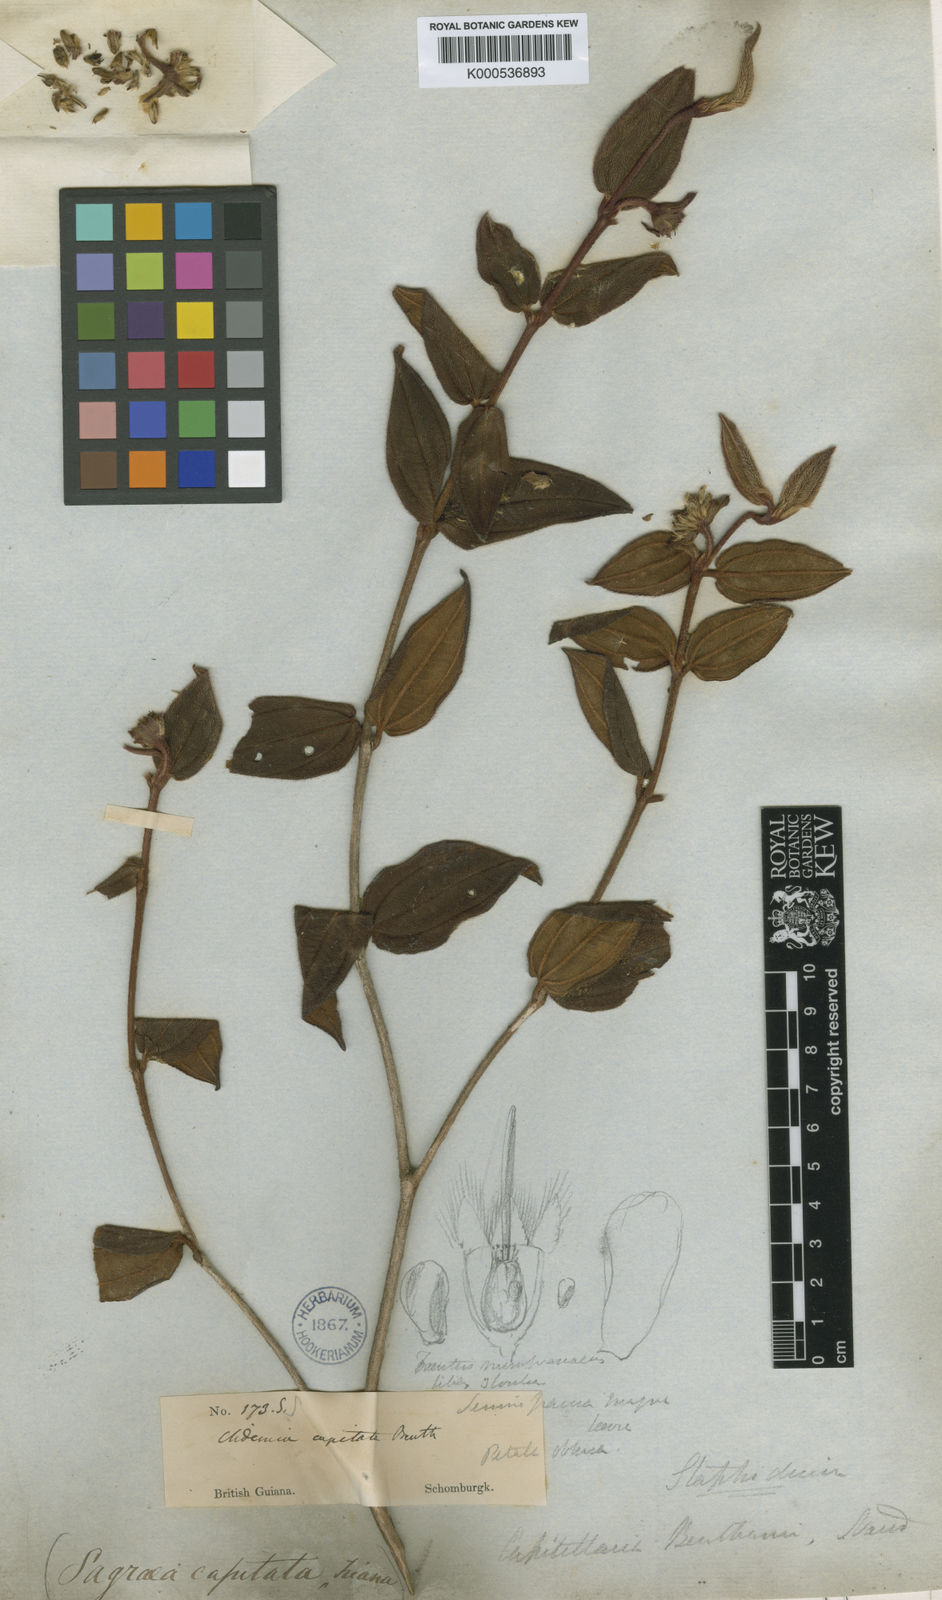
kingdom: Plantae
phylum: Tracheophyta
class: Magnoliopsida
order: Myrtales
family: Melastomataceae
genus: Miconia
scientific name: Miconia benthamii
